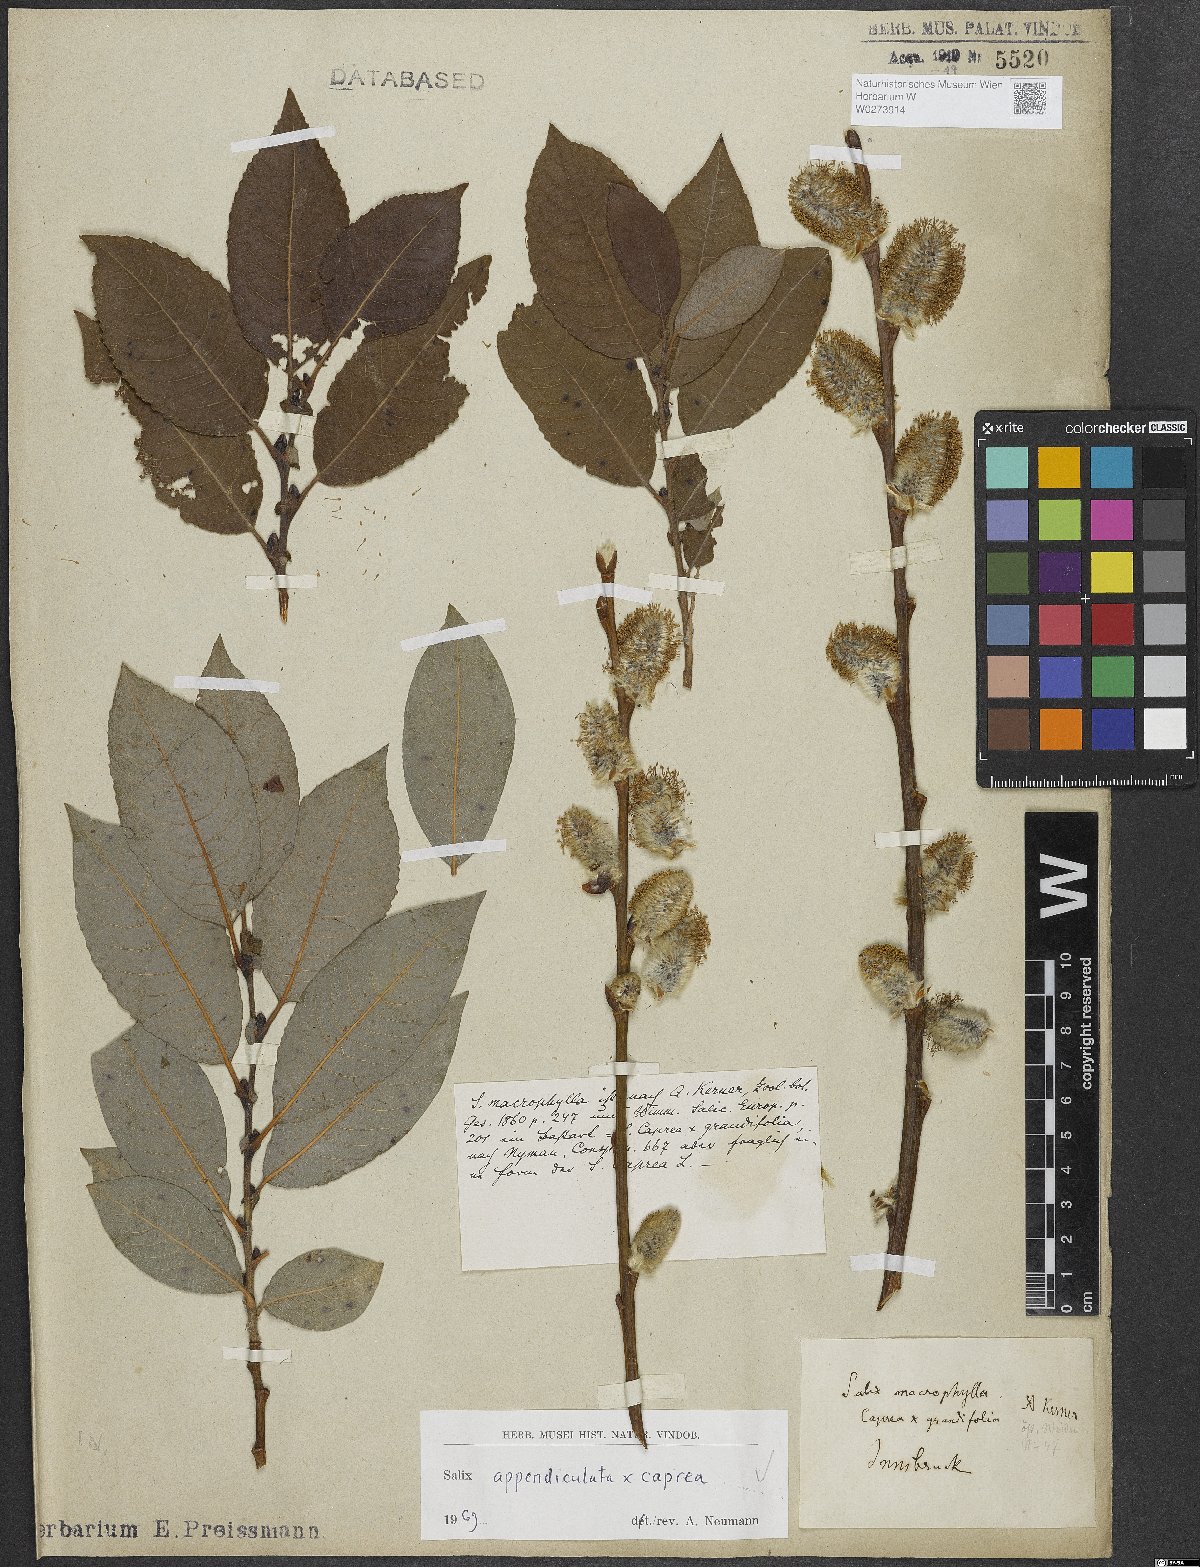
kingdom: Plantae
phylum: Tracheophyta
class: Magnoliopsida
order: Malpighiales
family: Salicaceae
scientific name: Salicaceae
